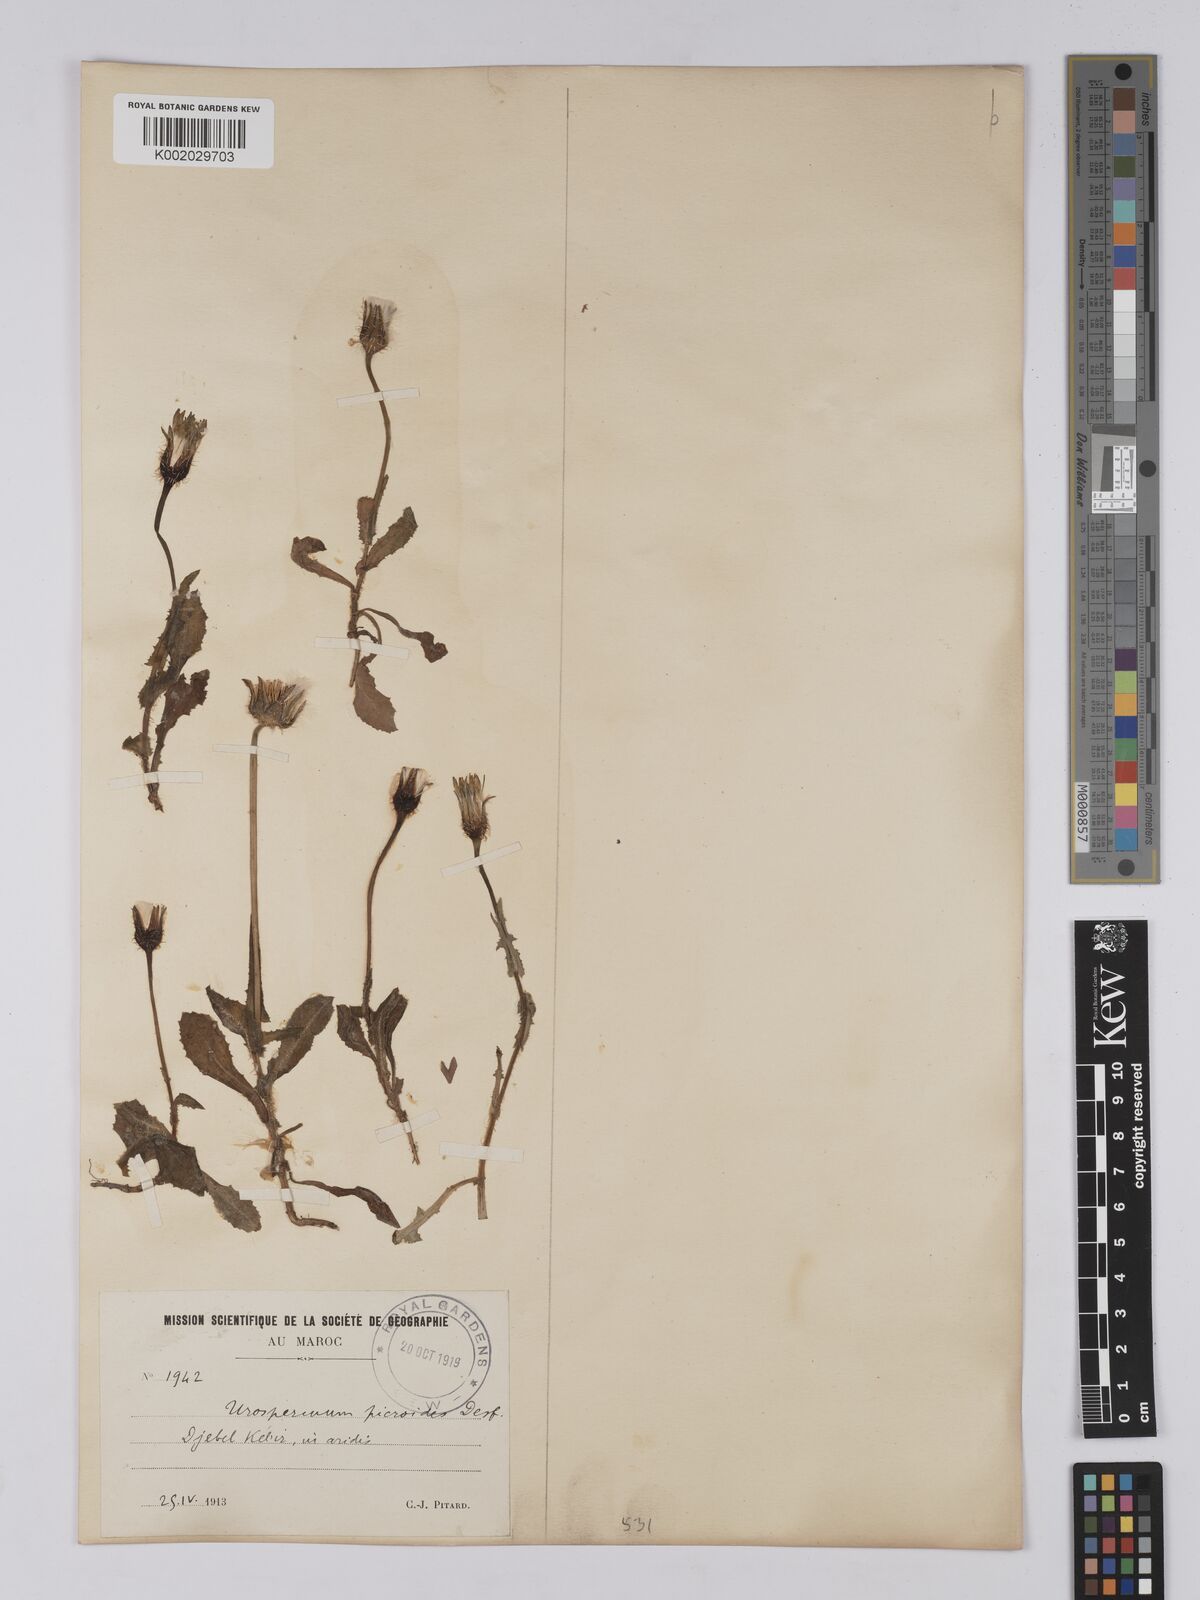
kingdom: Plantae
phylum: Tracheophyta
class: Magnoliopsida
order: Asterales
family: Asteraceae
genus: Urospermum
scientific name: Urospermum picroides
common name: False hawkbit
